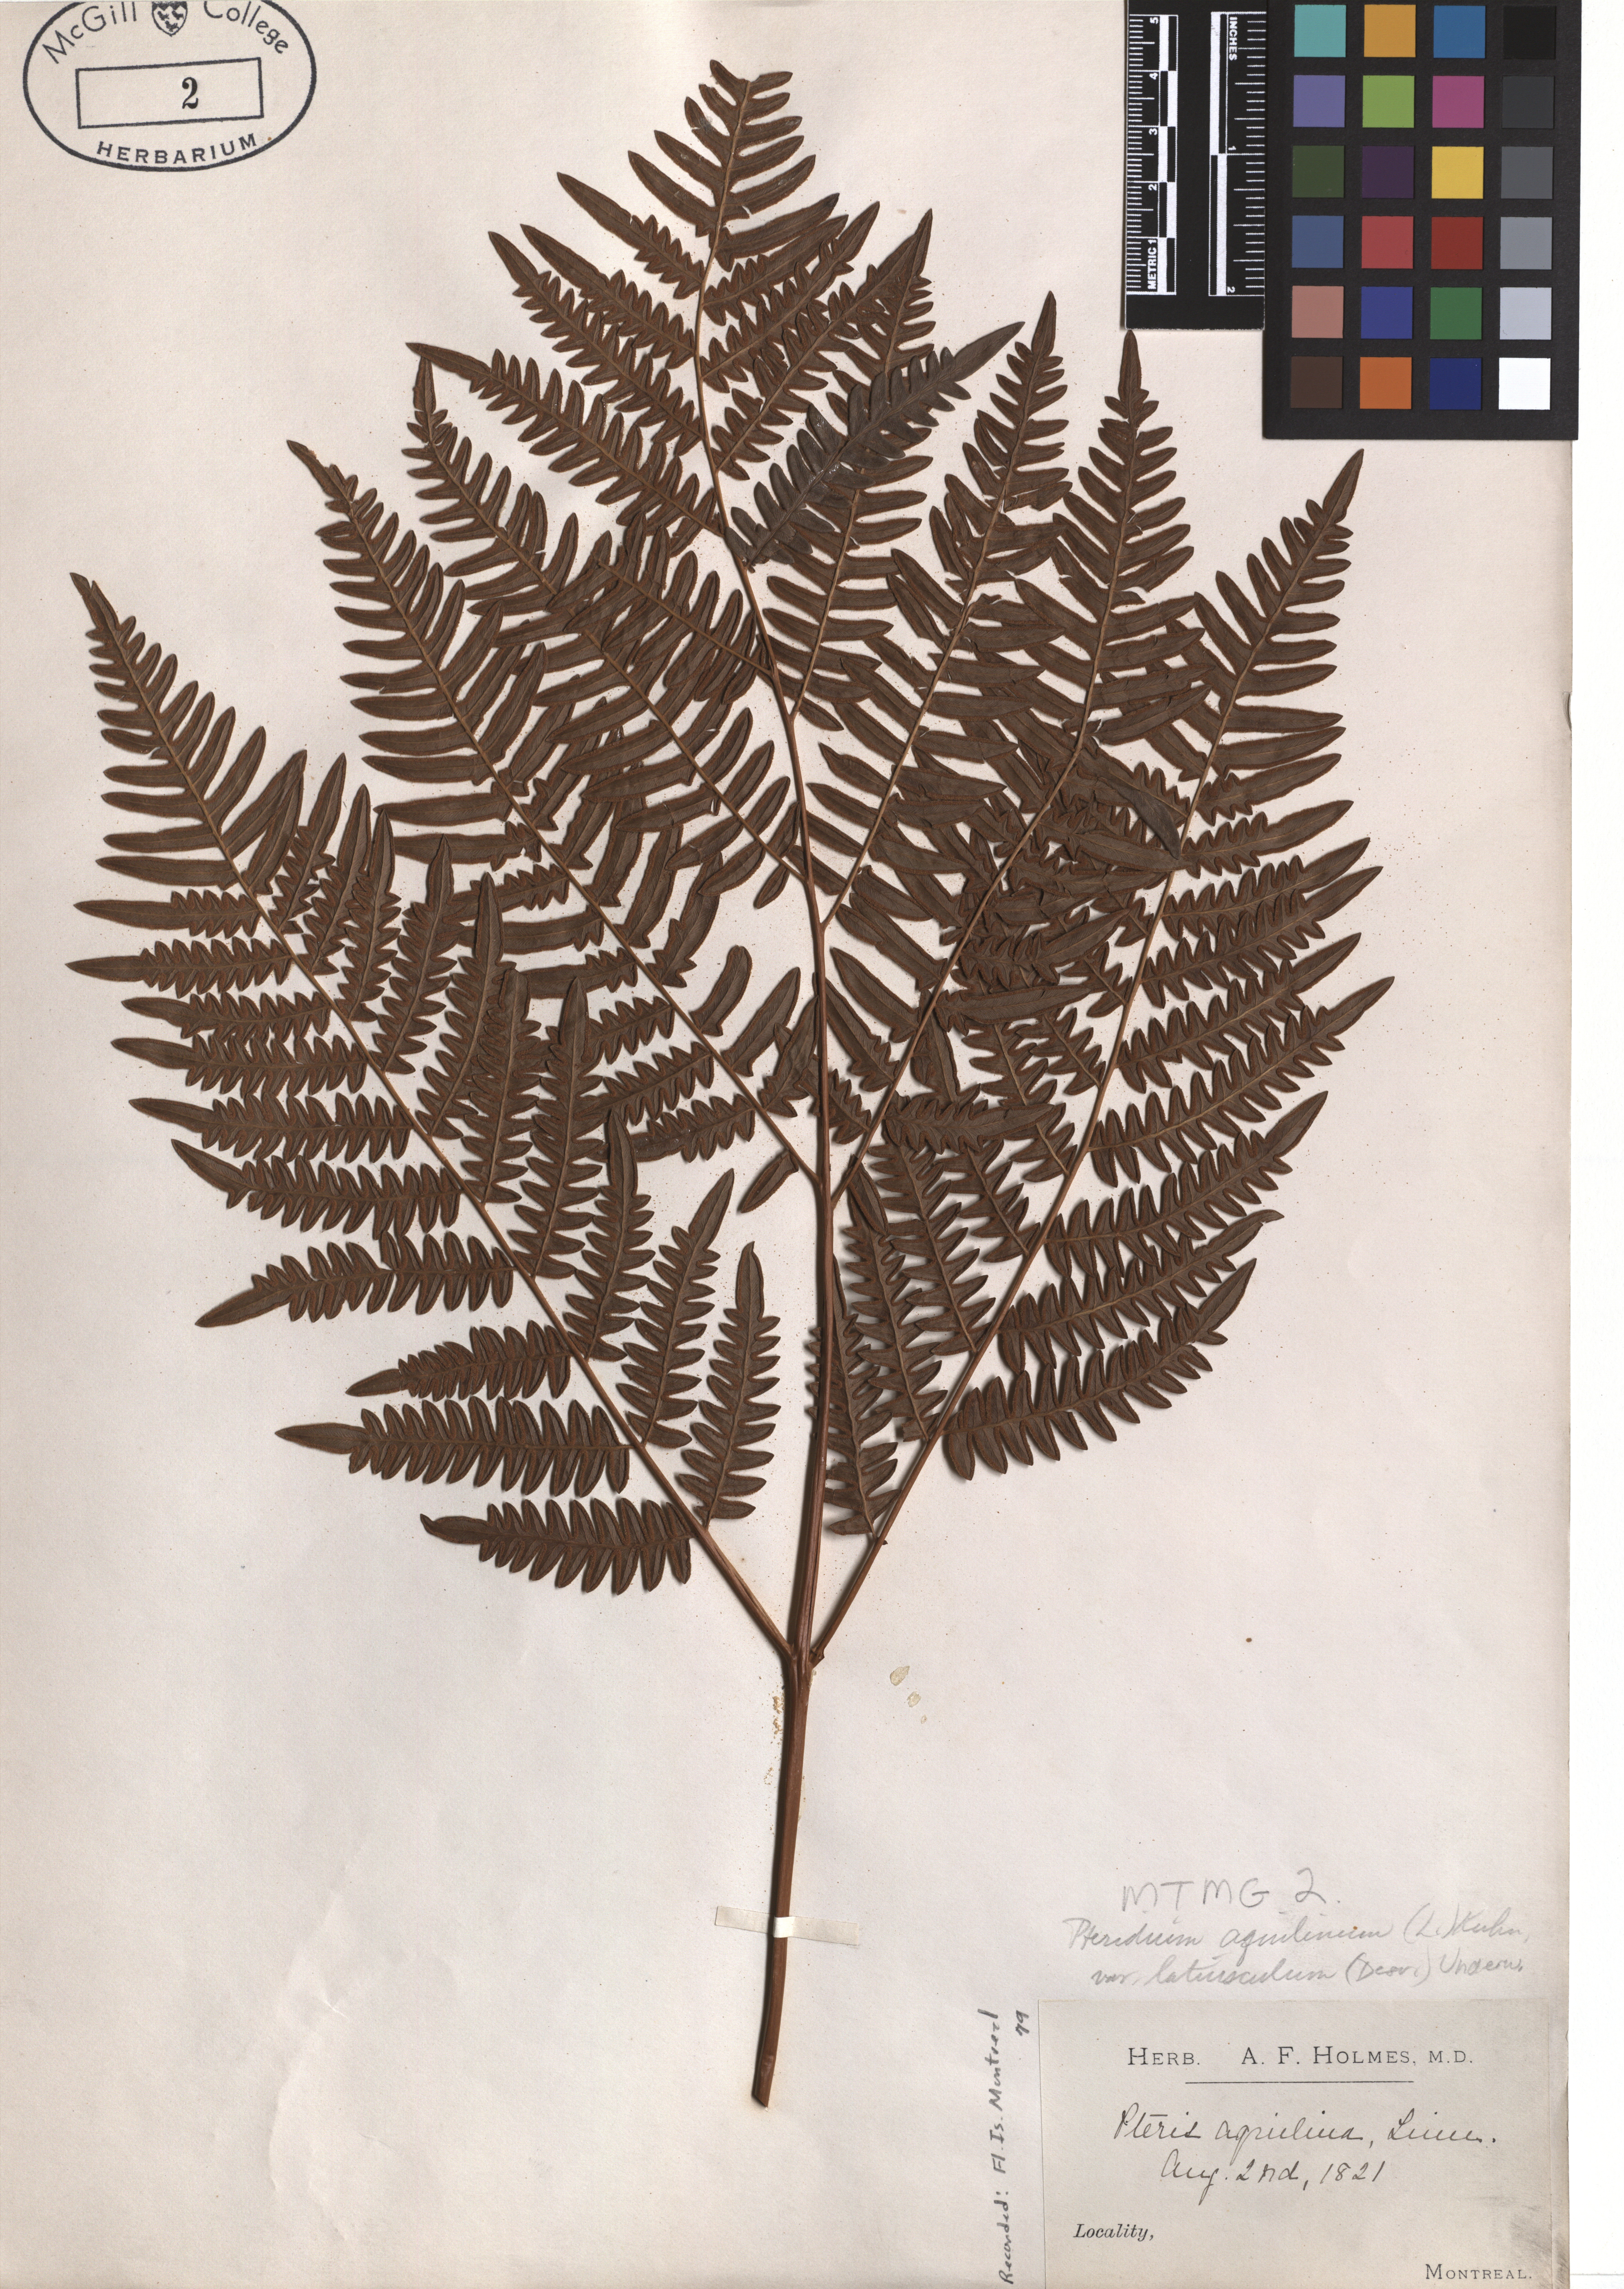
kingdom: Plantae
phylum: Tracheophyta
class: Polypodiopsida
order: Polypodiales
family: Dennstaedtiaceae
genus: Pteridium
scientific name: Pteridium aquilinum
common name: Bracken
